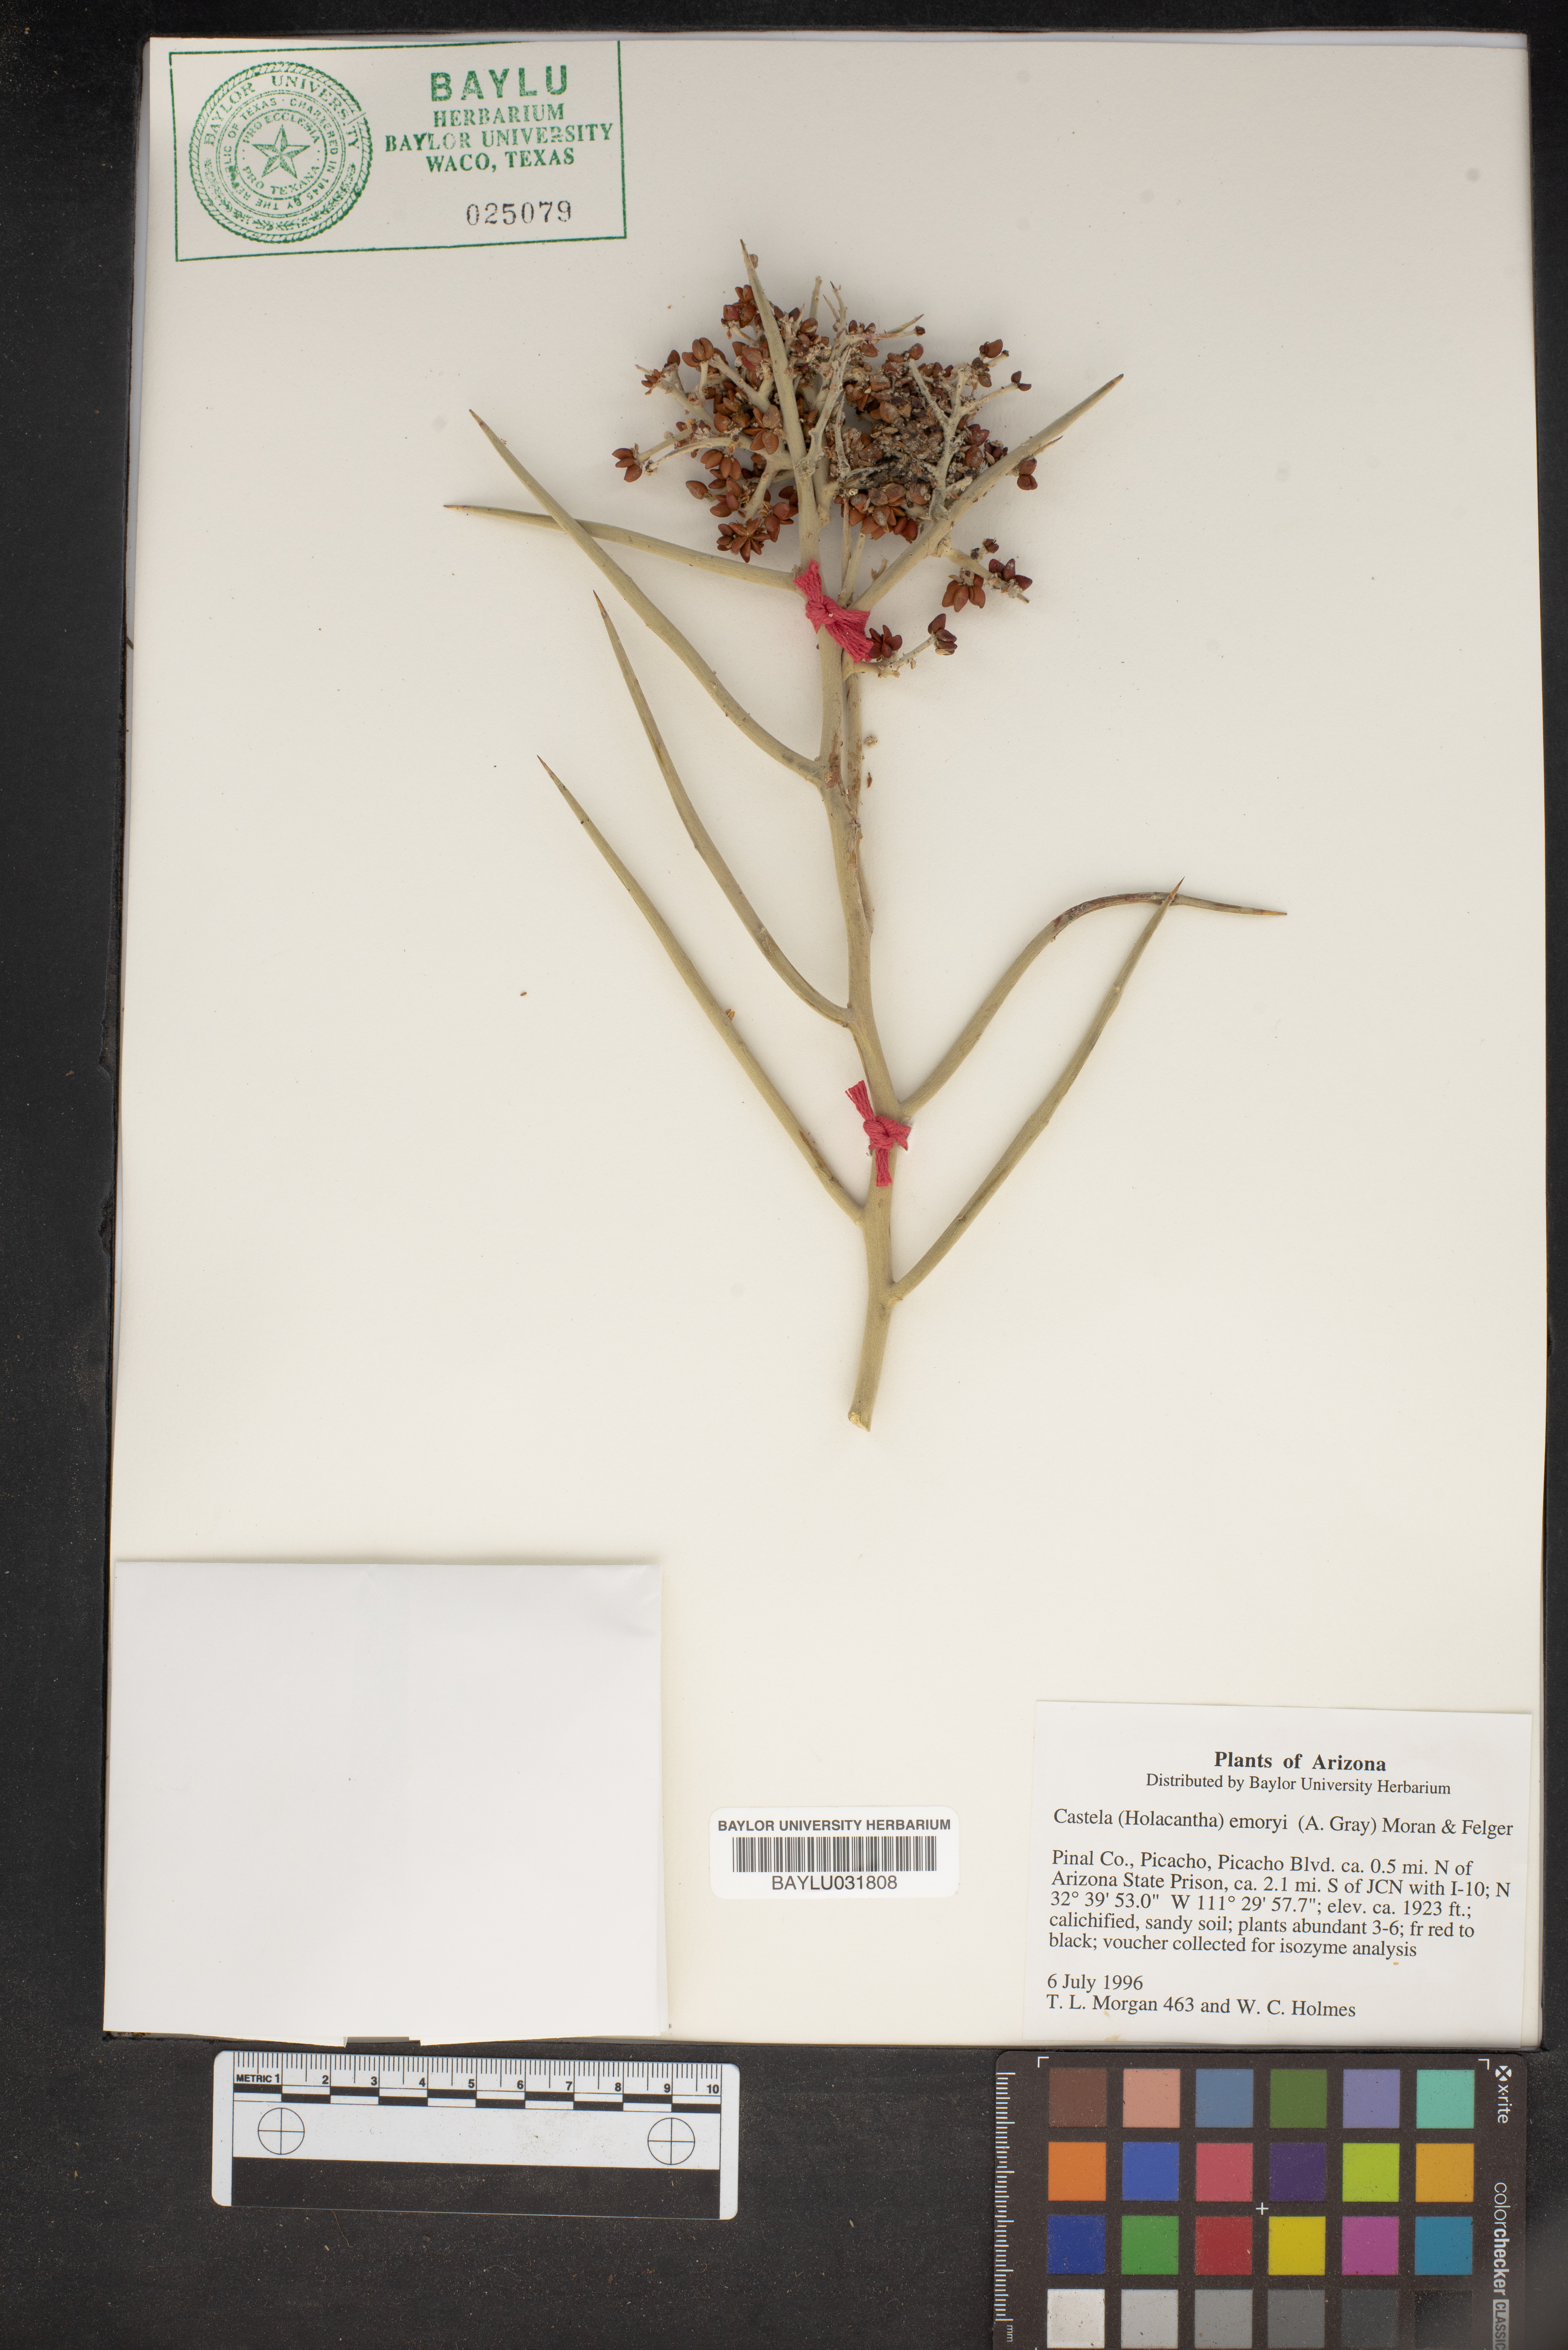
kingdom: Plantae
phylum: Tracheophyta
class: Magnoliopsida
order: Sapindales
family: Simaroubaceae
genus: Holacantha
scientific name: Holacantha emoryi
